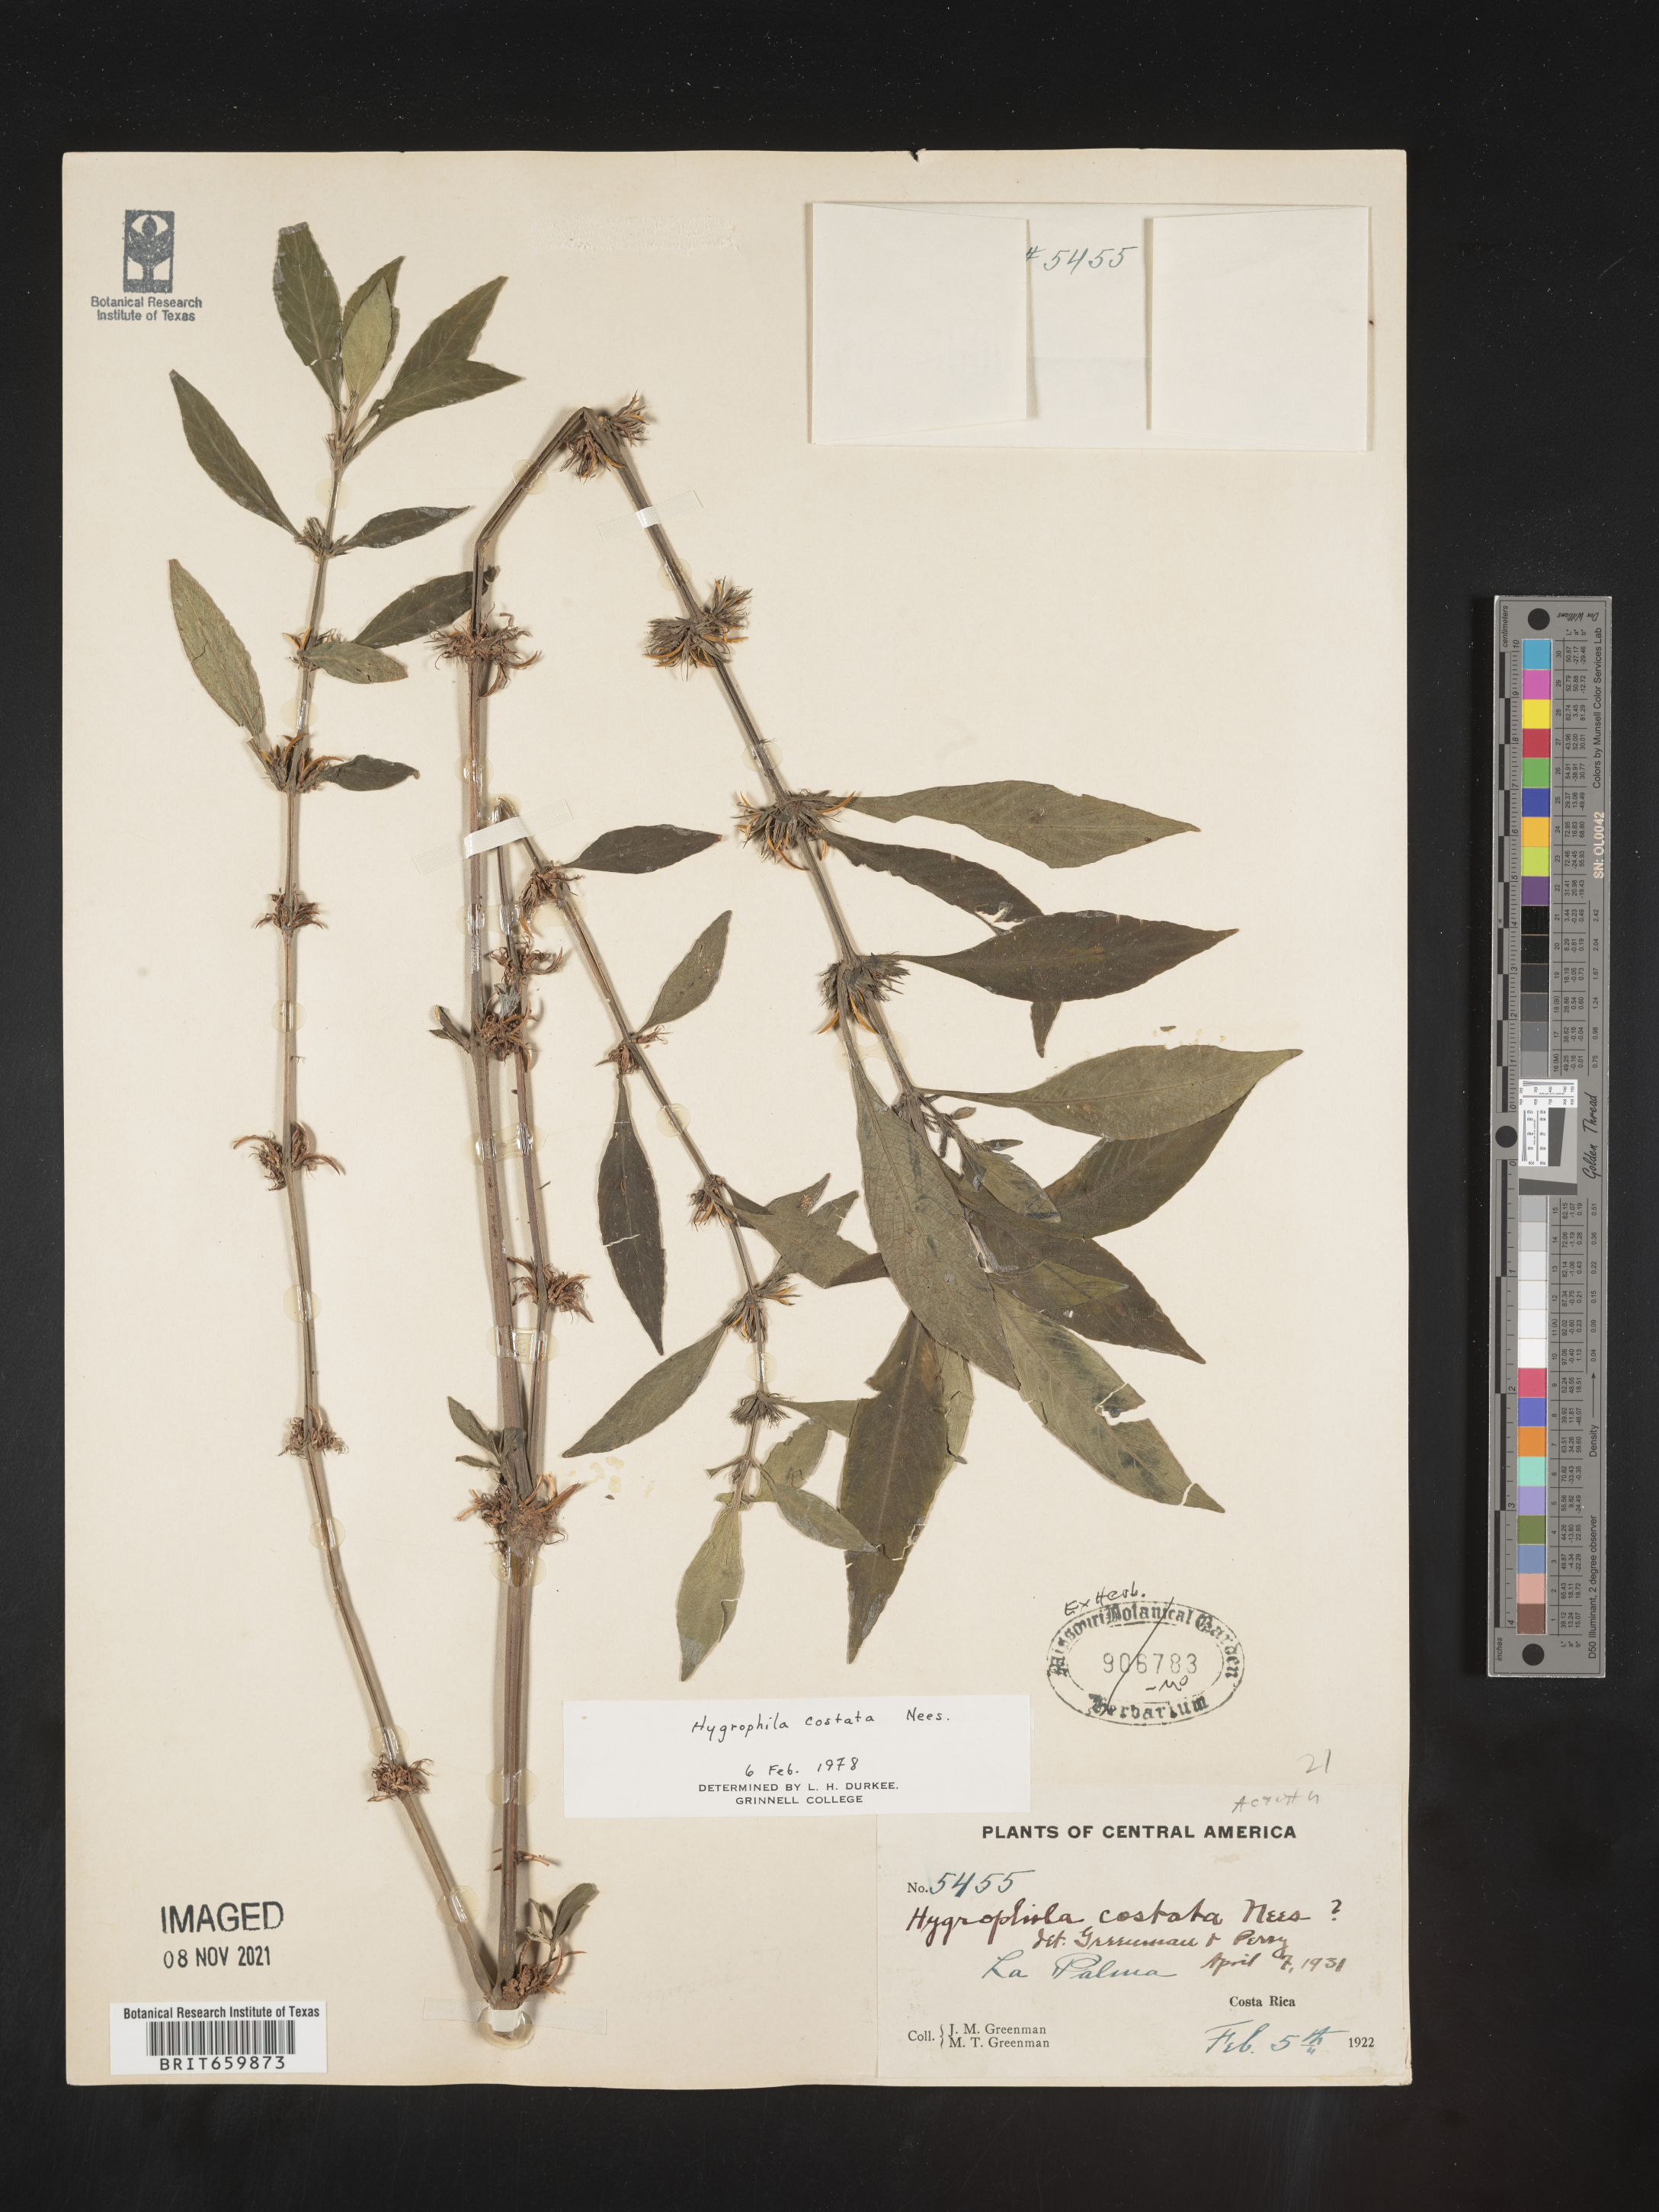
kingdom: Plantae
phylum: Tracheophyta
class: Magnoliopsida
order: Lamiales
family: Acanthaceae
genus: Hygrophila
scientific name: Hygrophila
